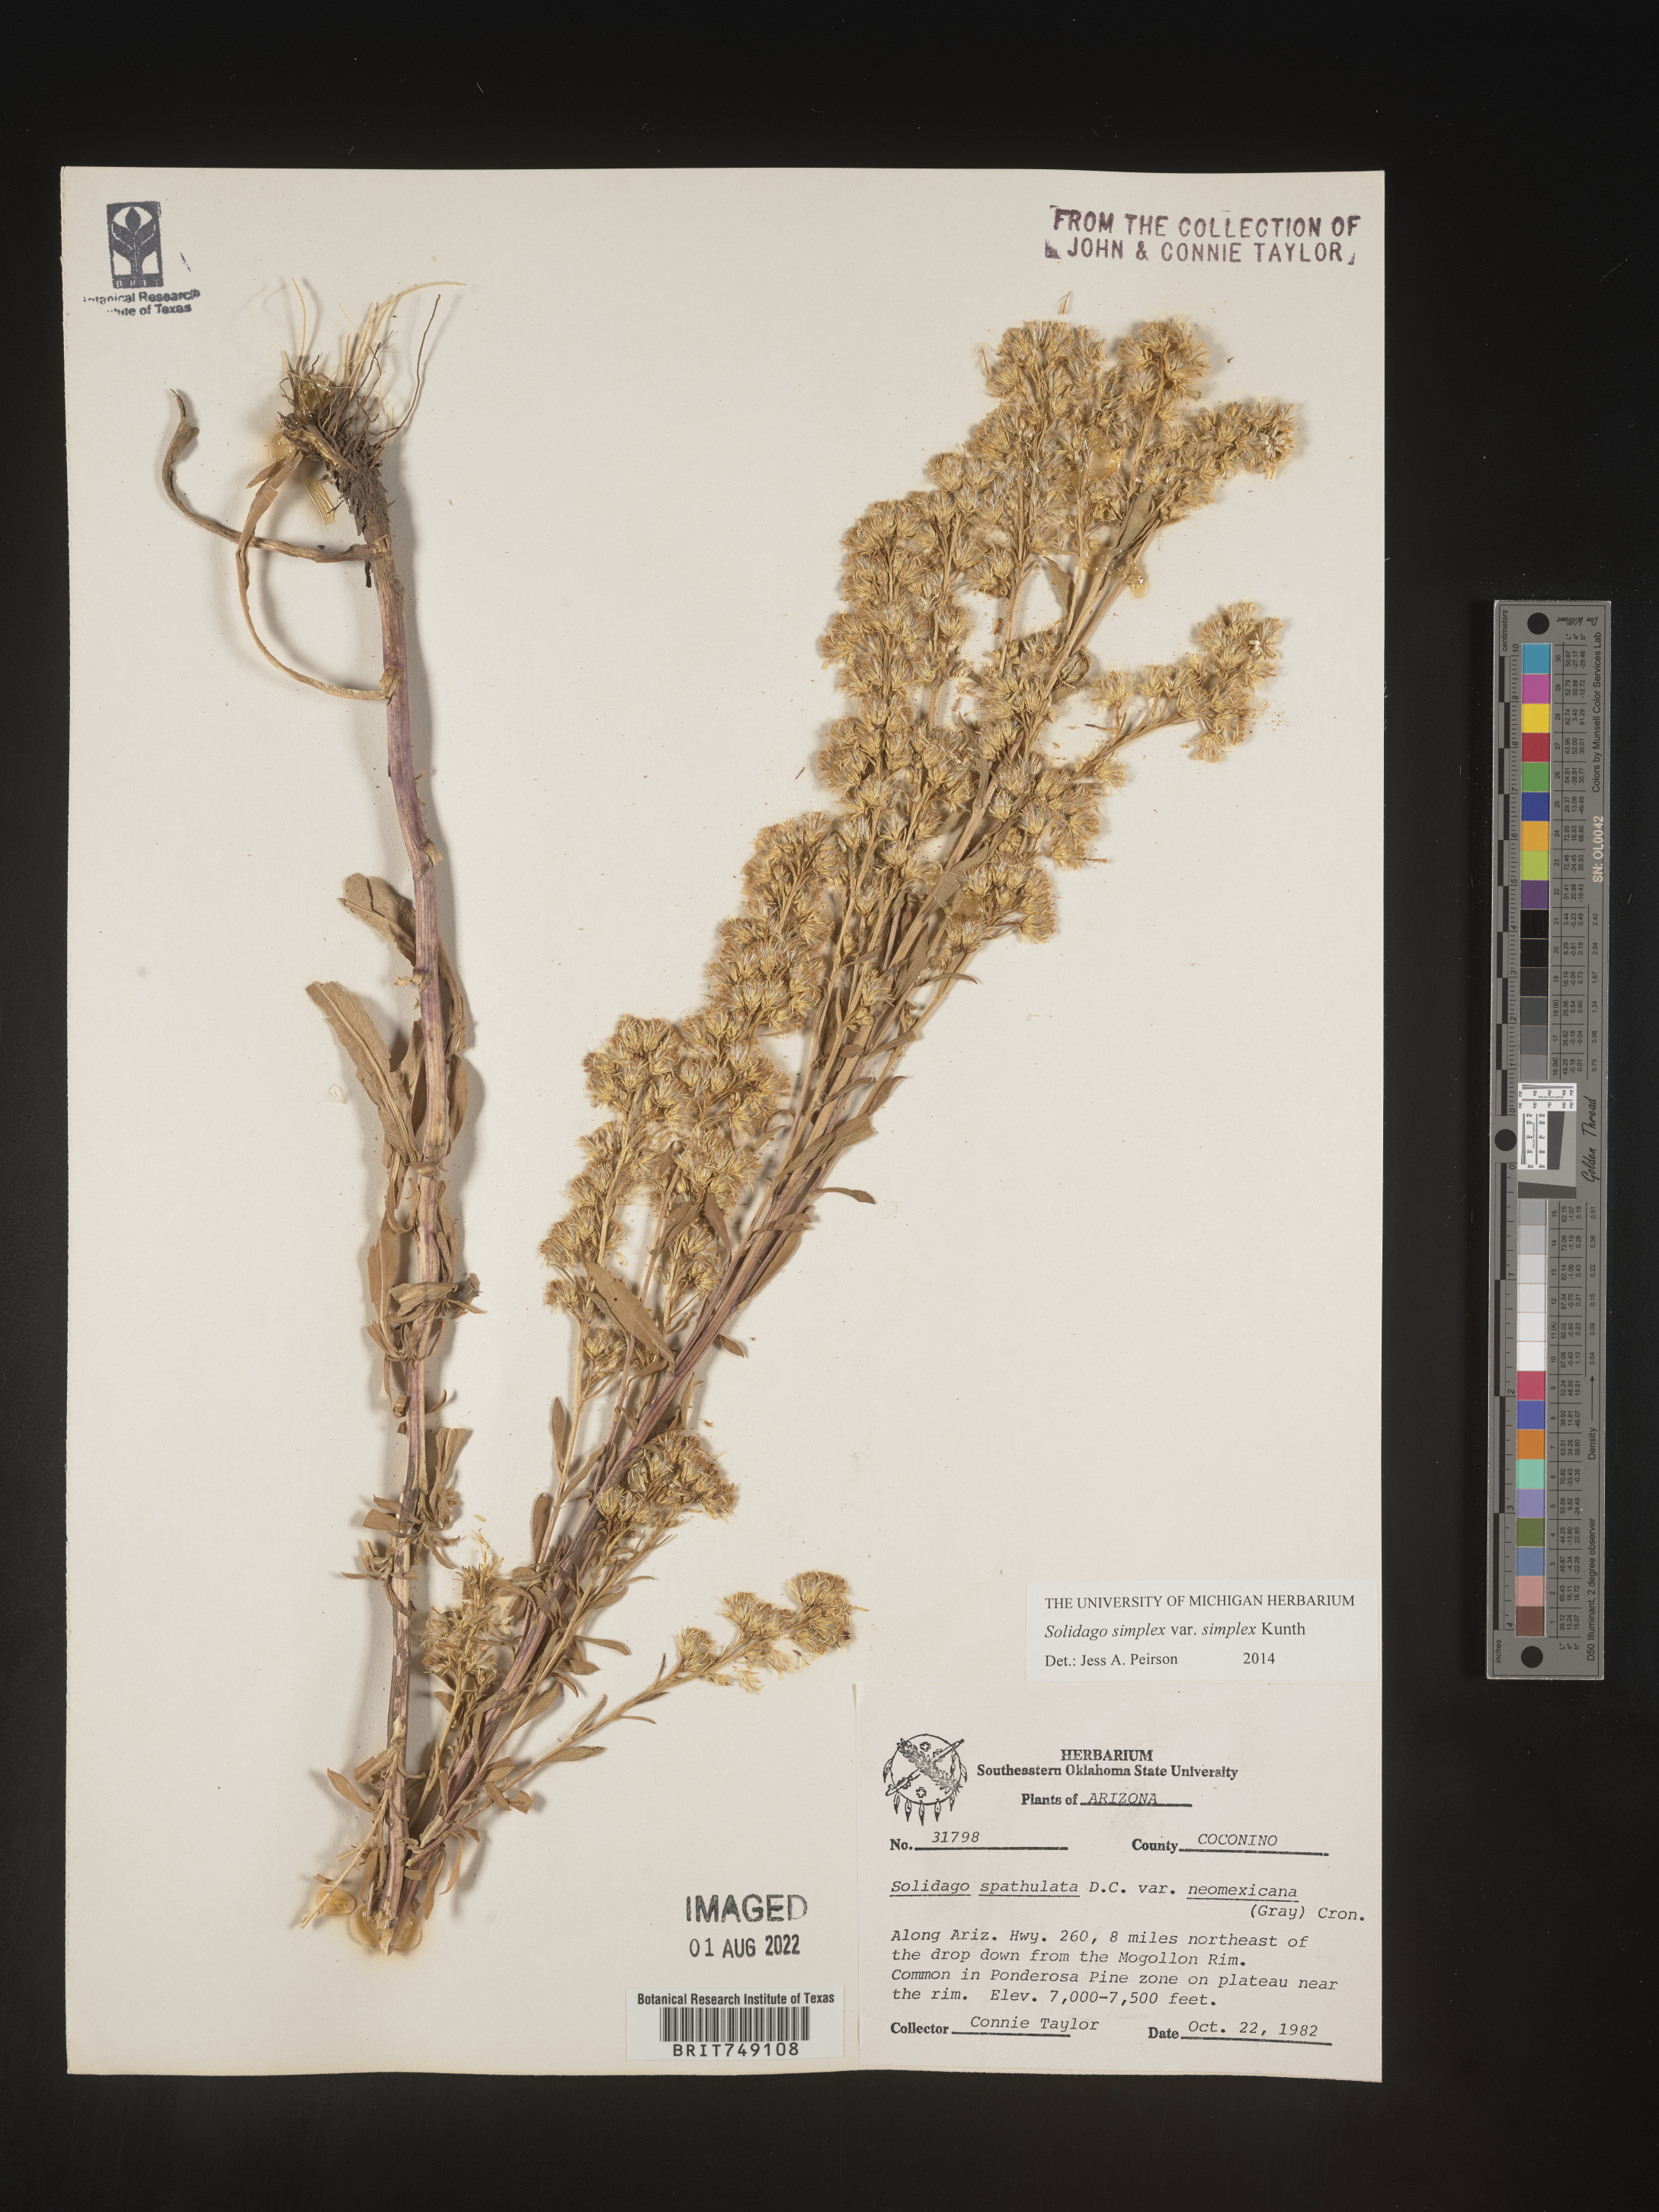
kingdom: Plantae
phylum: Tracheophyta
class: Magnoliopsida
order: Asterales
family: Asteraceae
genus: Solidago
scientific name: Solidago simplex
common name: Sticky goldenrod
